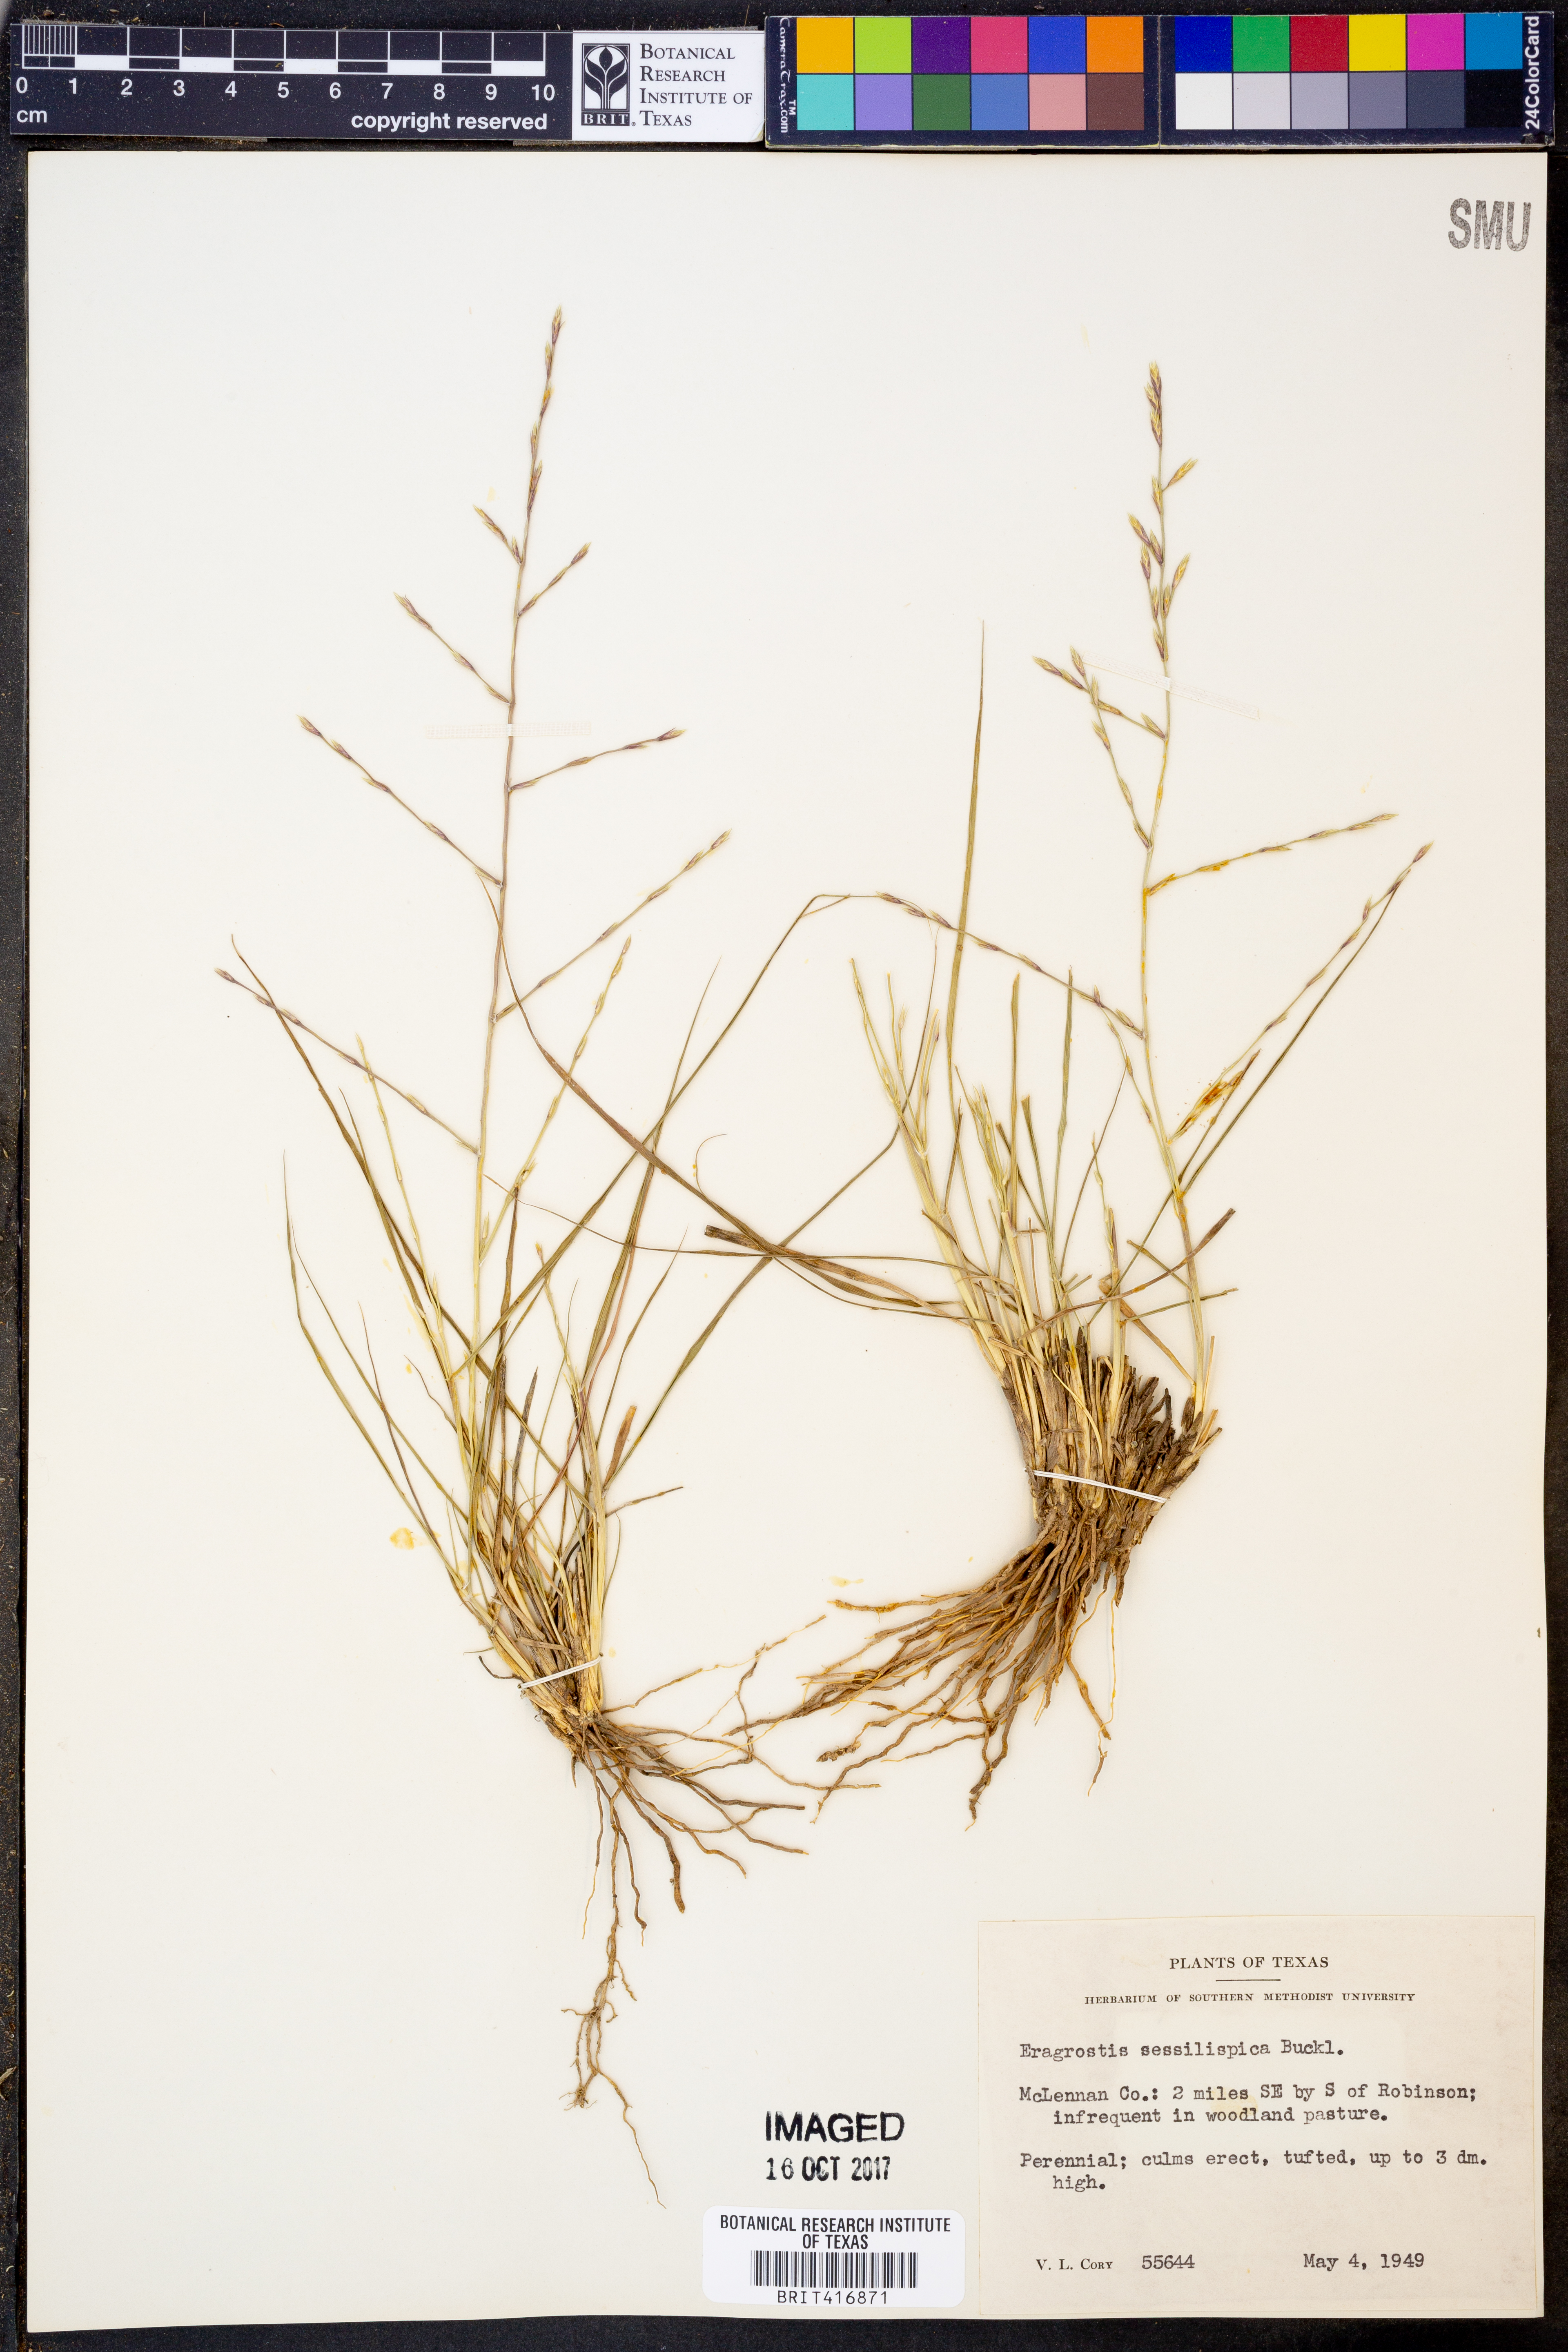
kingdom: Plantae
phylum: Tracheophyta
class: Liliopsida
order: Poales
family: Poaceae
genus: Eragrostis
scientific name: Eragrostis sessilispica
